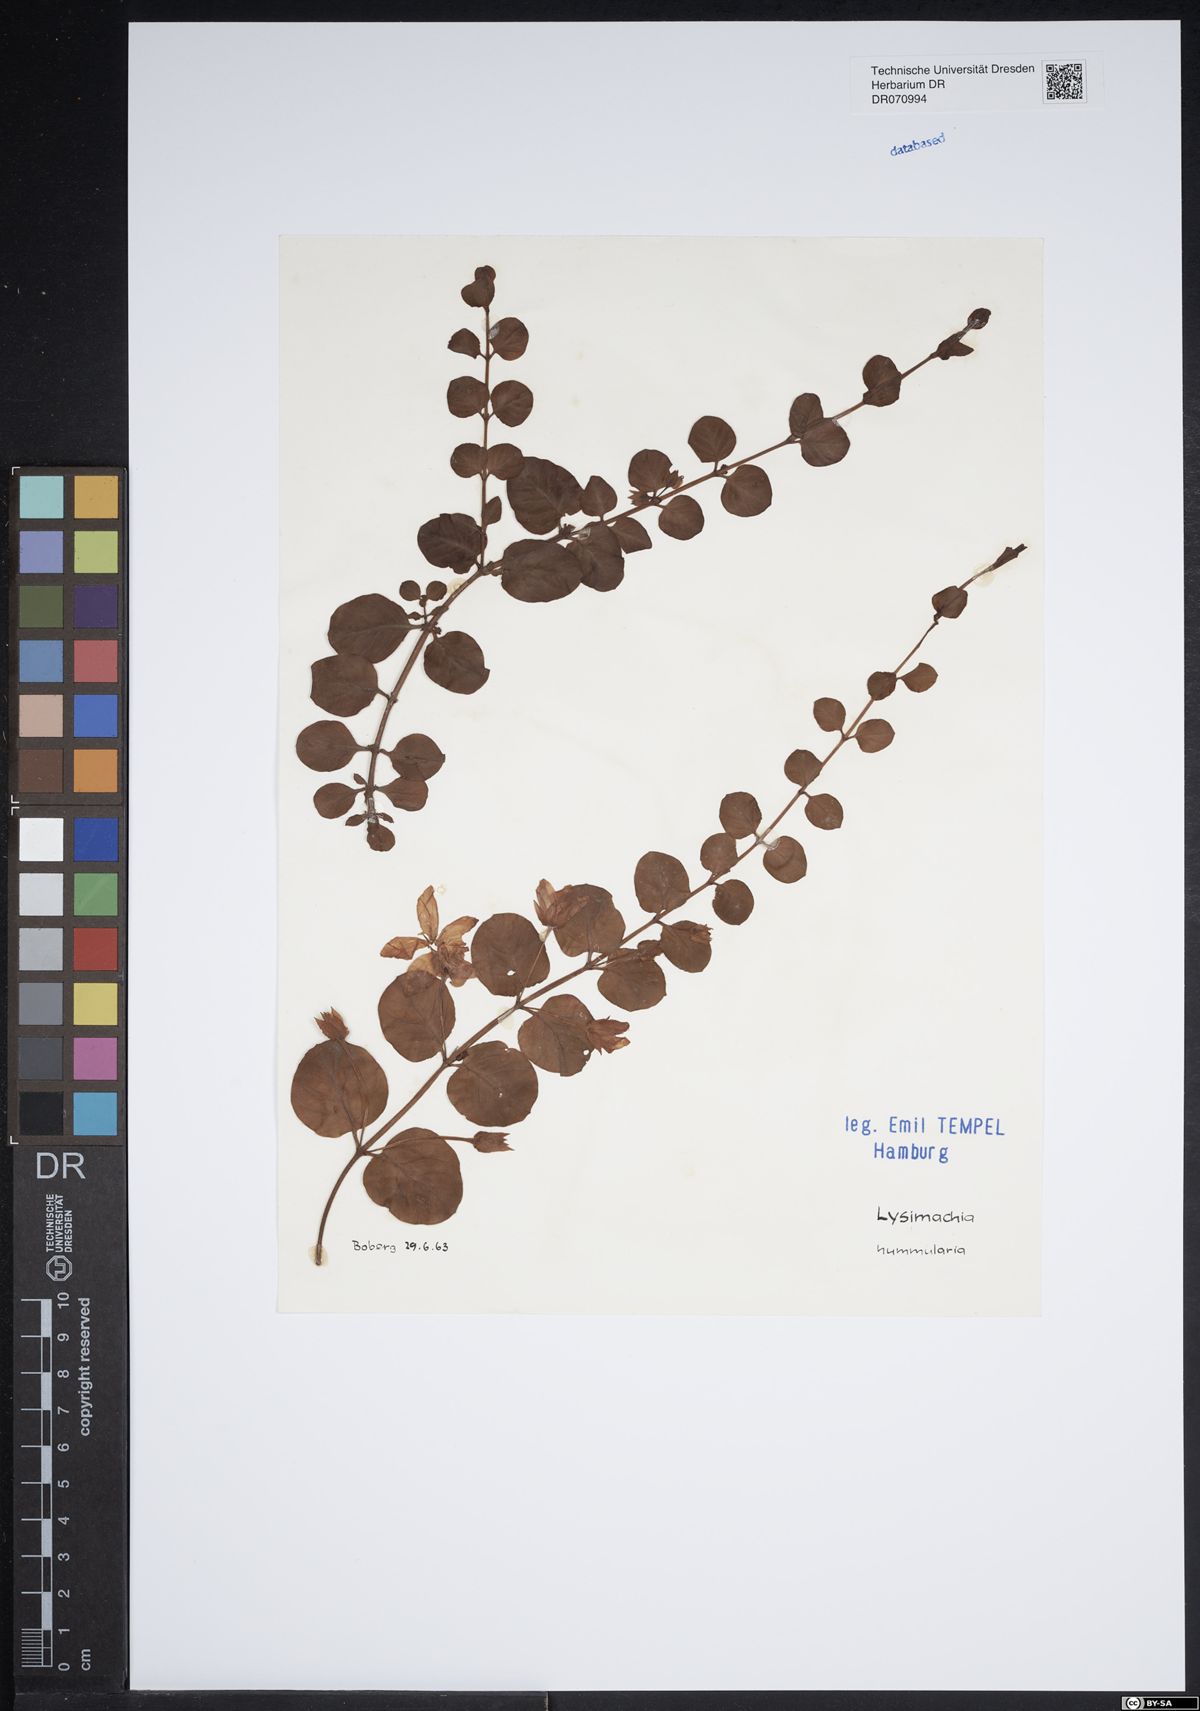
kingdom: Plantae
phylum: Tracheophyta
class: Magnoliopsida
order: Ericales
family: Primulaceae
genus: Lysimachia
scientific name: Lysimachia nummularia
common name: Moneywort
